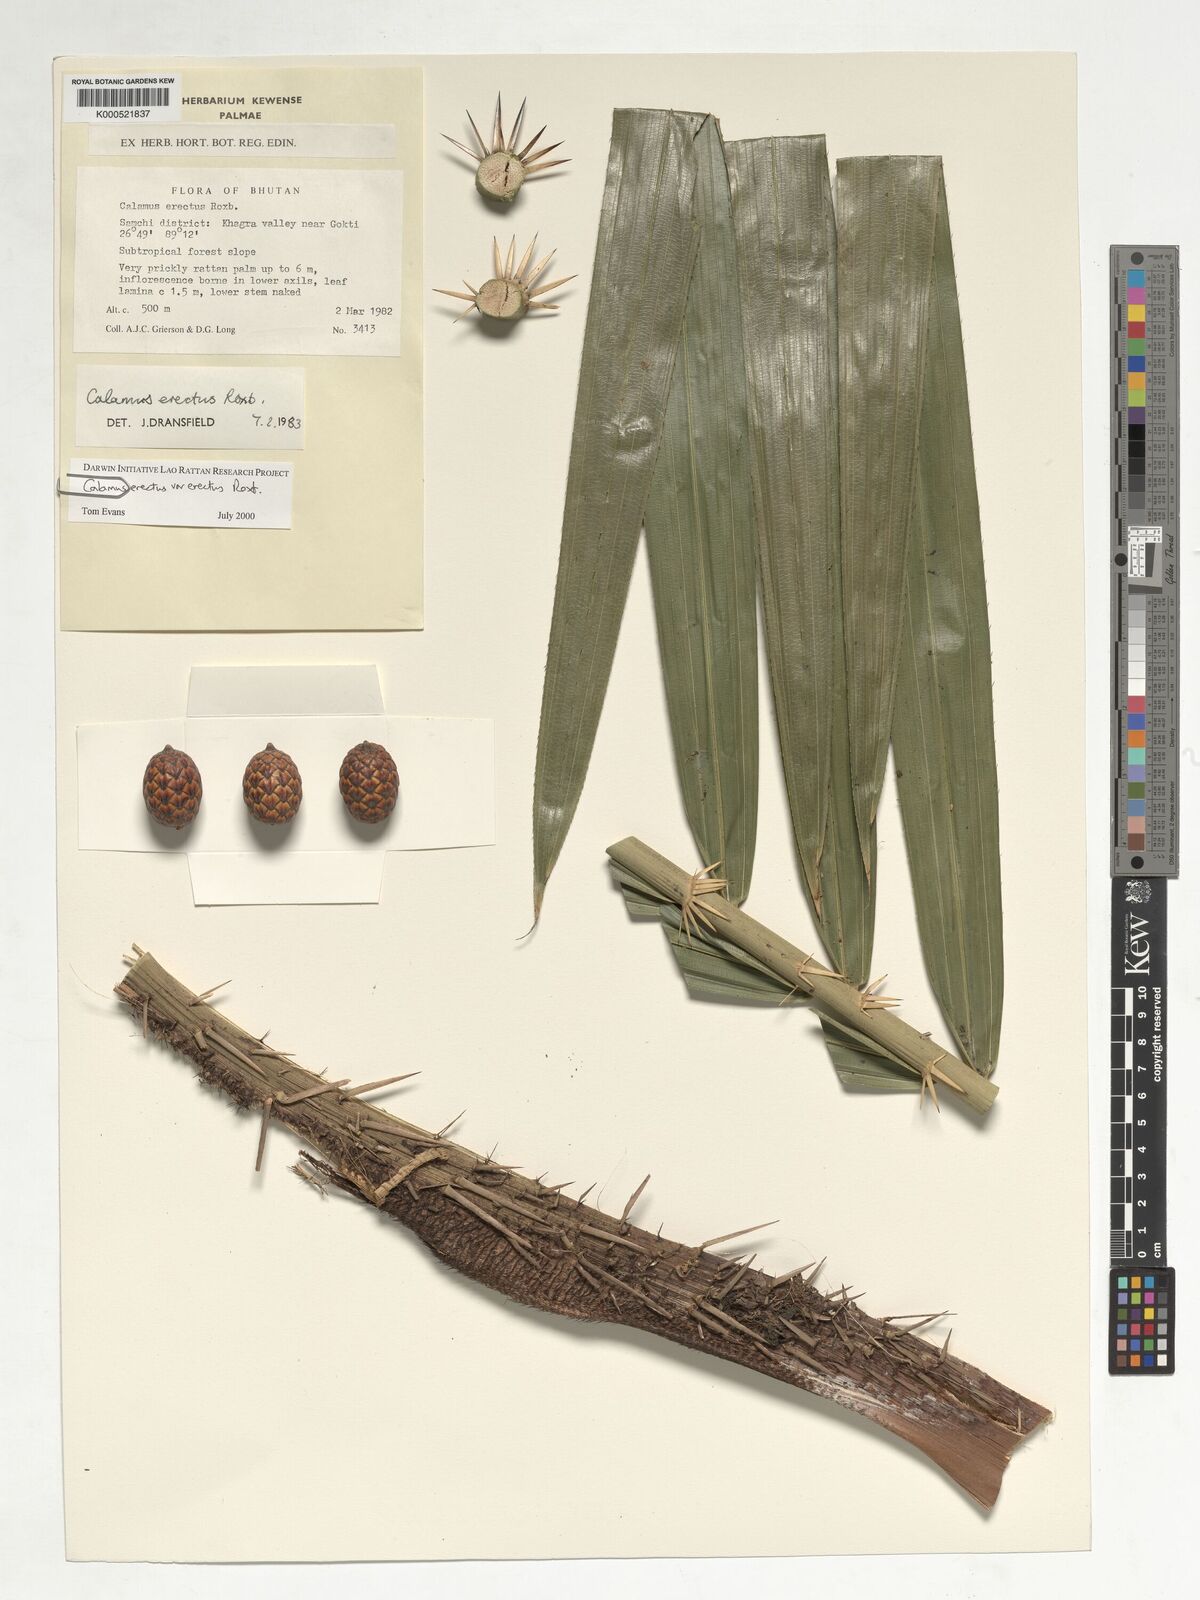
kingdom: Plantae
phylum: Tracheophyta
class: Liliopsida
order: Arecales
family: Arecaceae
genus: Calamus
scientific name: Calamus erectus
